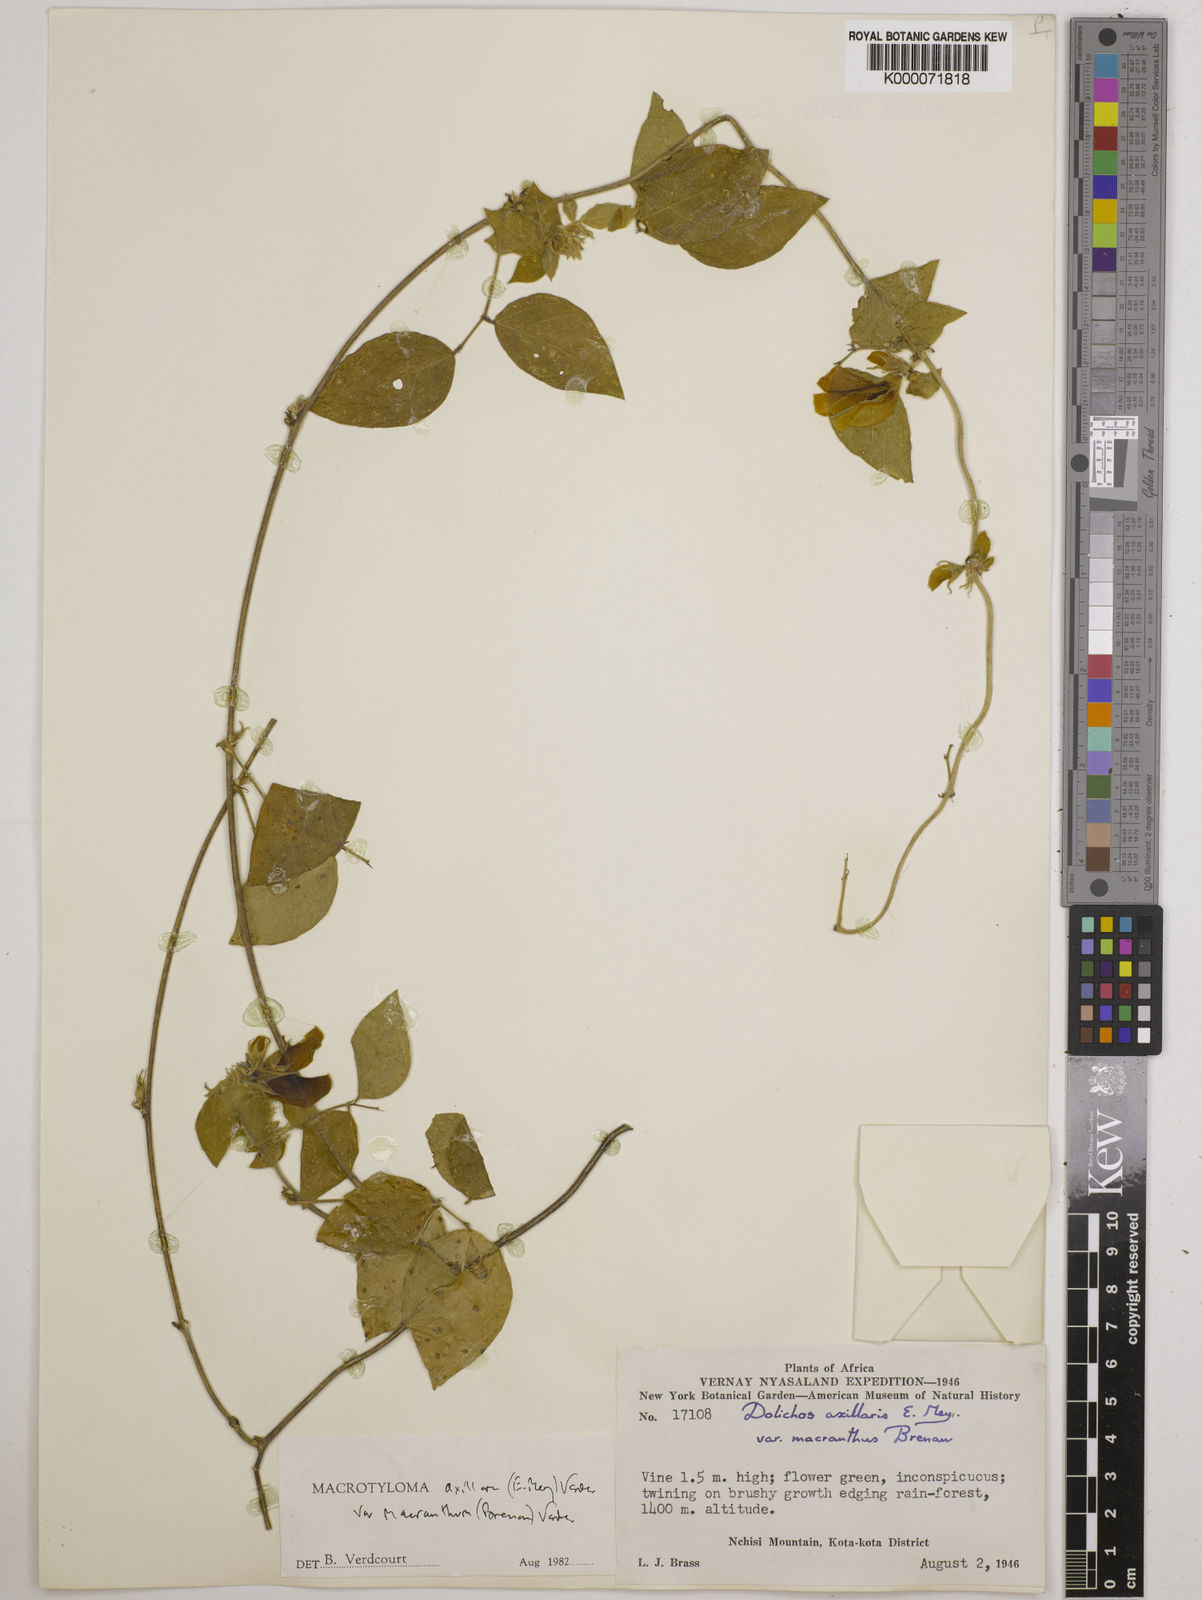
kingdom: Plantae
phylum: Tracheophyta
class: Magnoliopsida
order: Fabales
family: Fabaceae
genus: Macrotyloma
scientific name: Macrotyloma axillare
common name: Perennial horsegram
